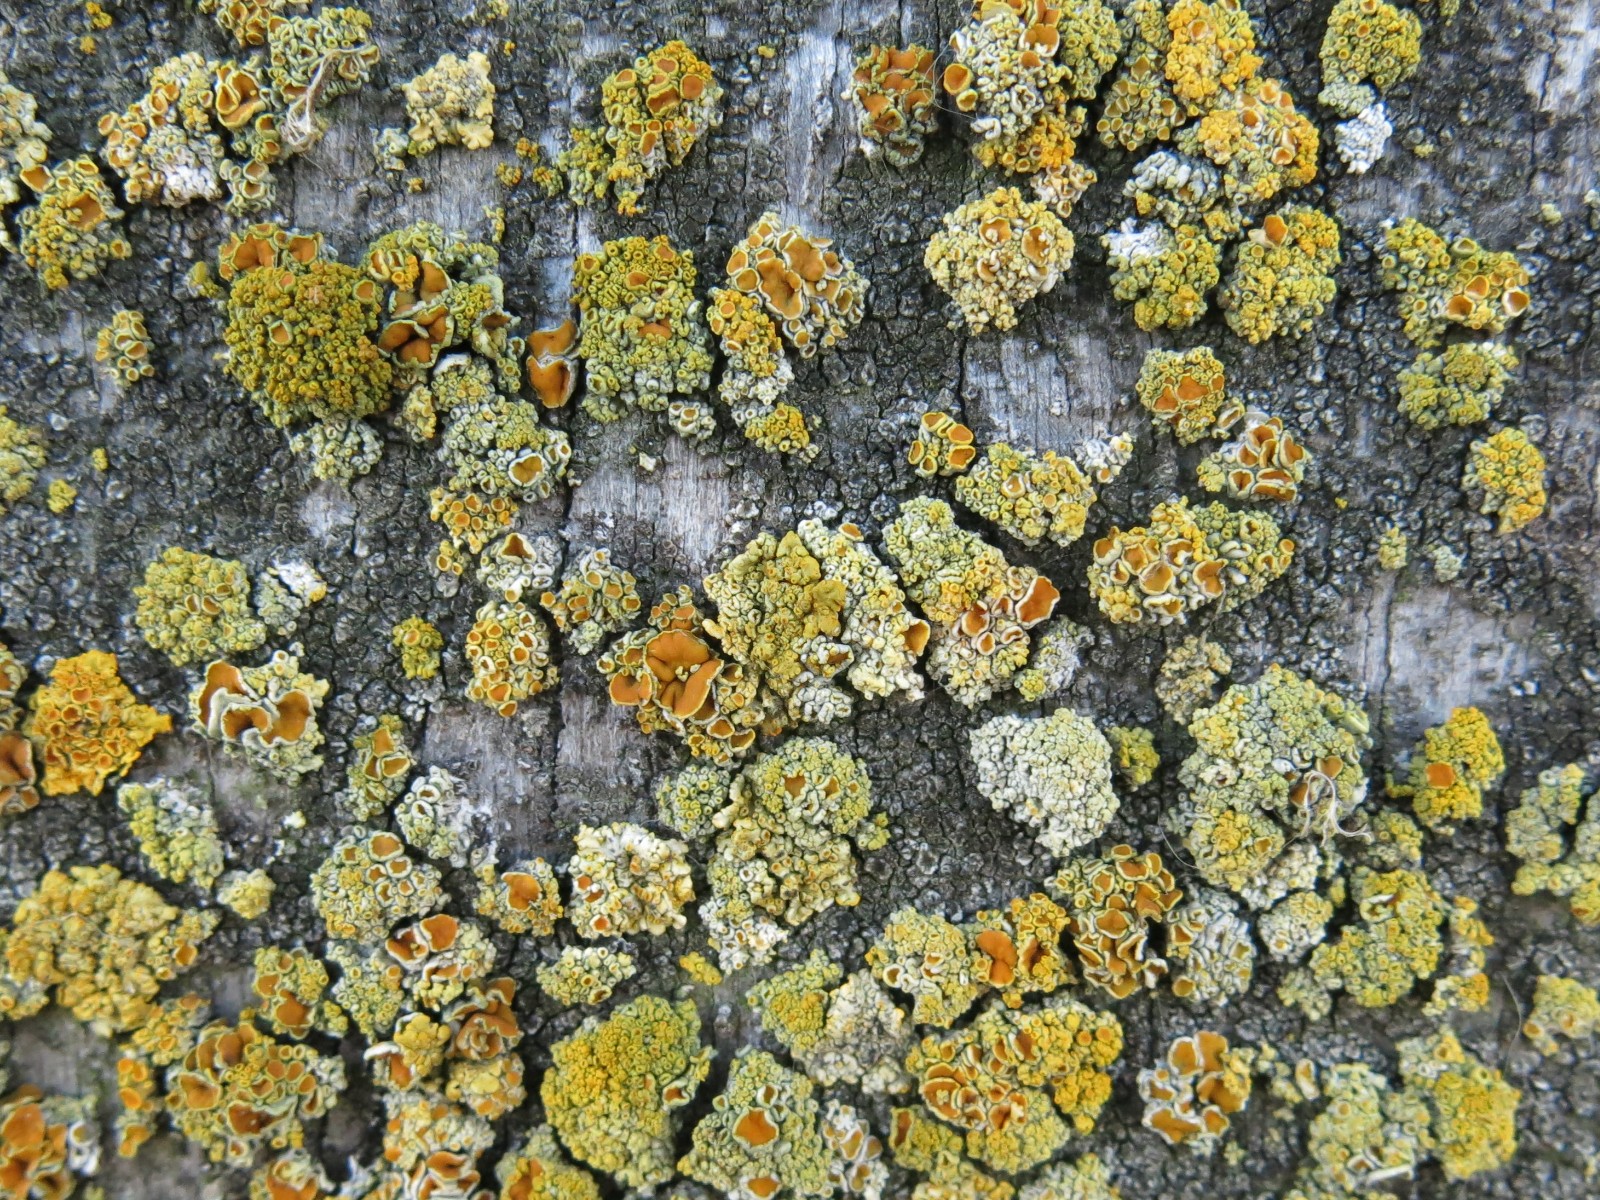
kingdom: Fungi
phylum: Ascomycota
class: Lecanoromycetes
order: Teloschistales
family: Teloschistaceae
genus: Polycauliona
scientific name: Polycauliona polycarpa
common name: mangefrugtet orangelav
